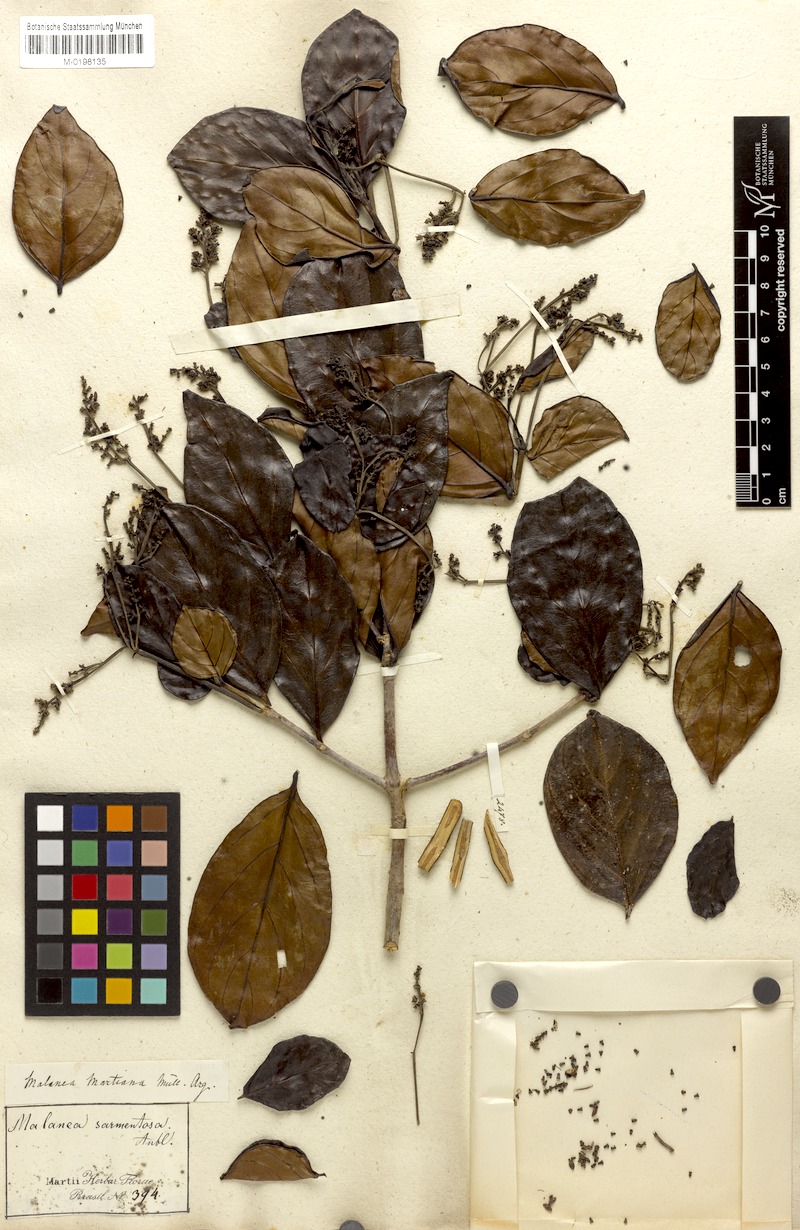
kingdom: Plantae
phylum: Tracheophyta
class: Magnoliopsida
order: Gentianales
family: Rubiaceae
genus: Malanea
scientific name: Malanea martiana
